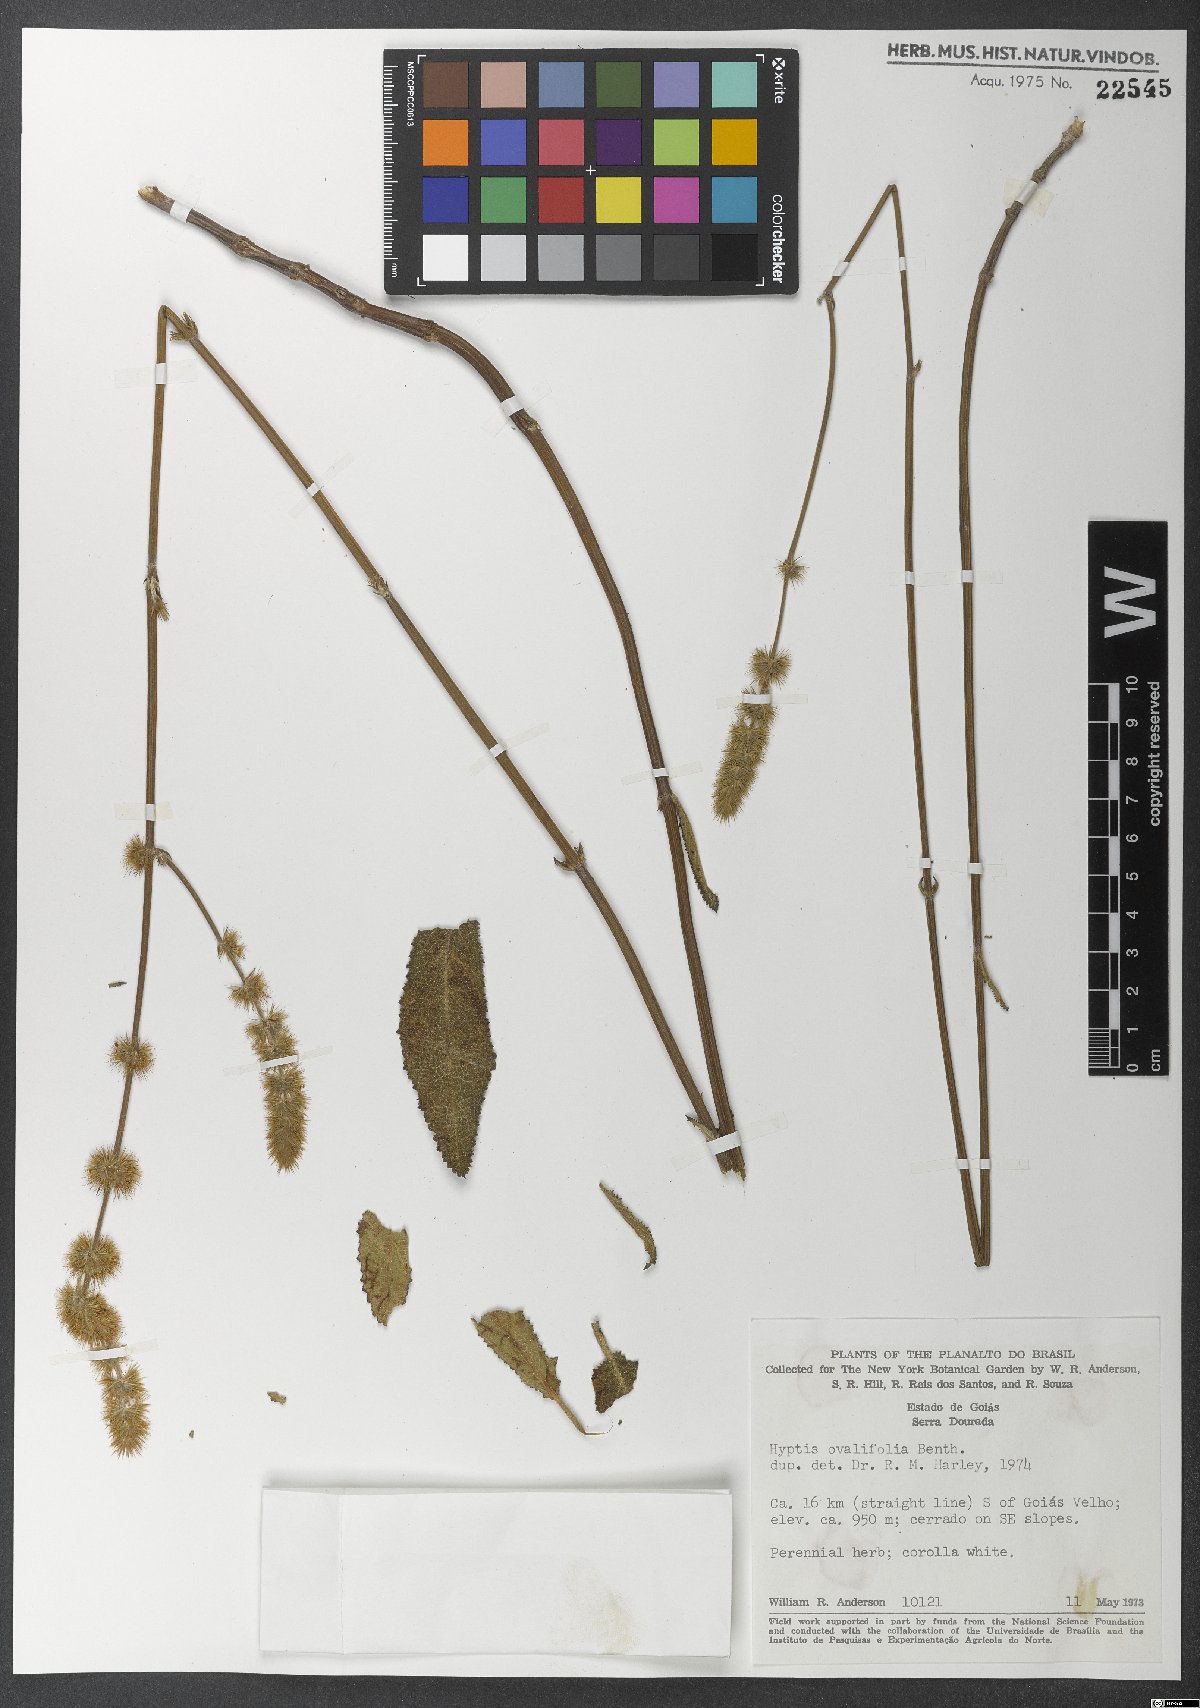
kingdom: Plantae
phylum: Tracheophyta
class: Magnoliopsida
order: Lamiales
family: Lamiaceae
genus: Gymneia
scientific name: Gymneia interrupta
